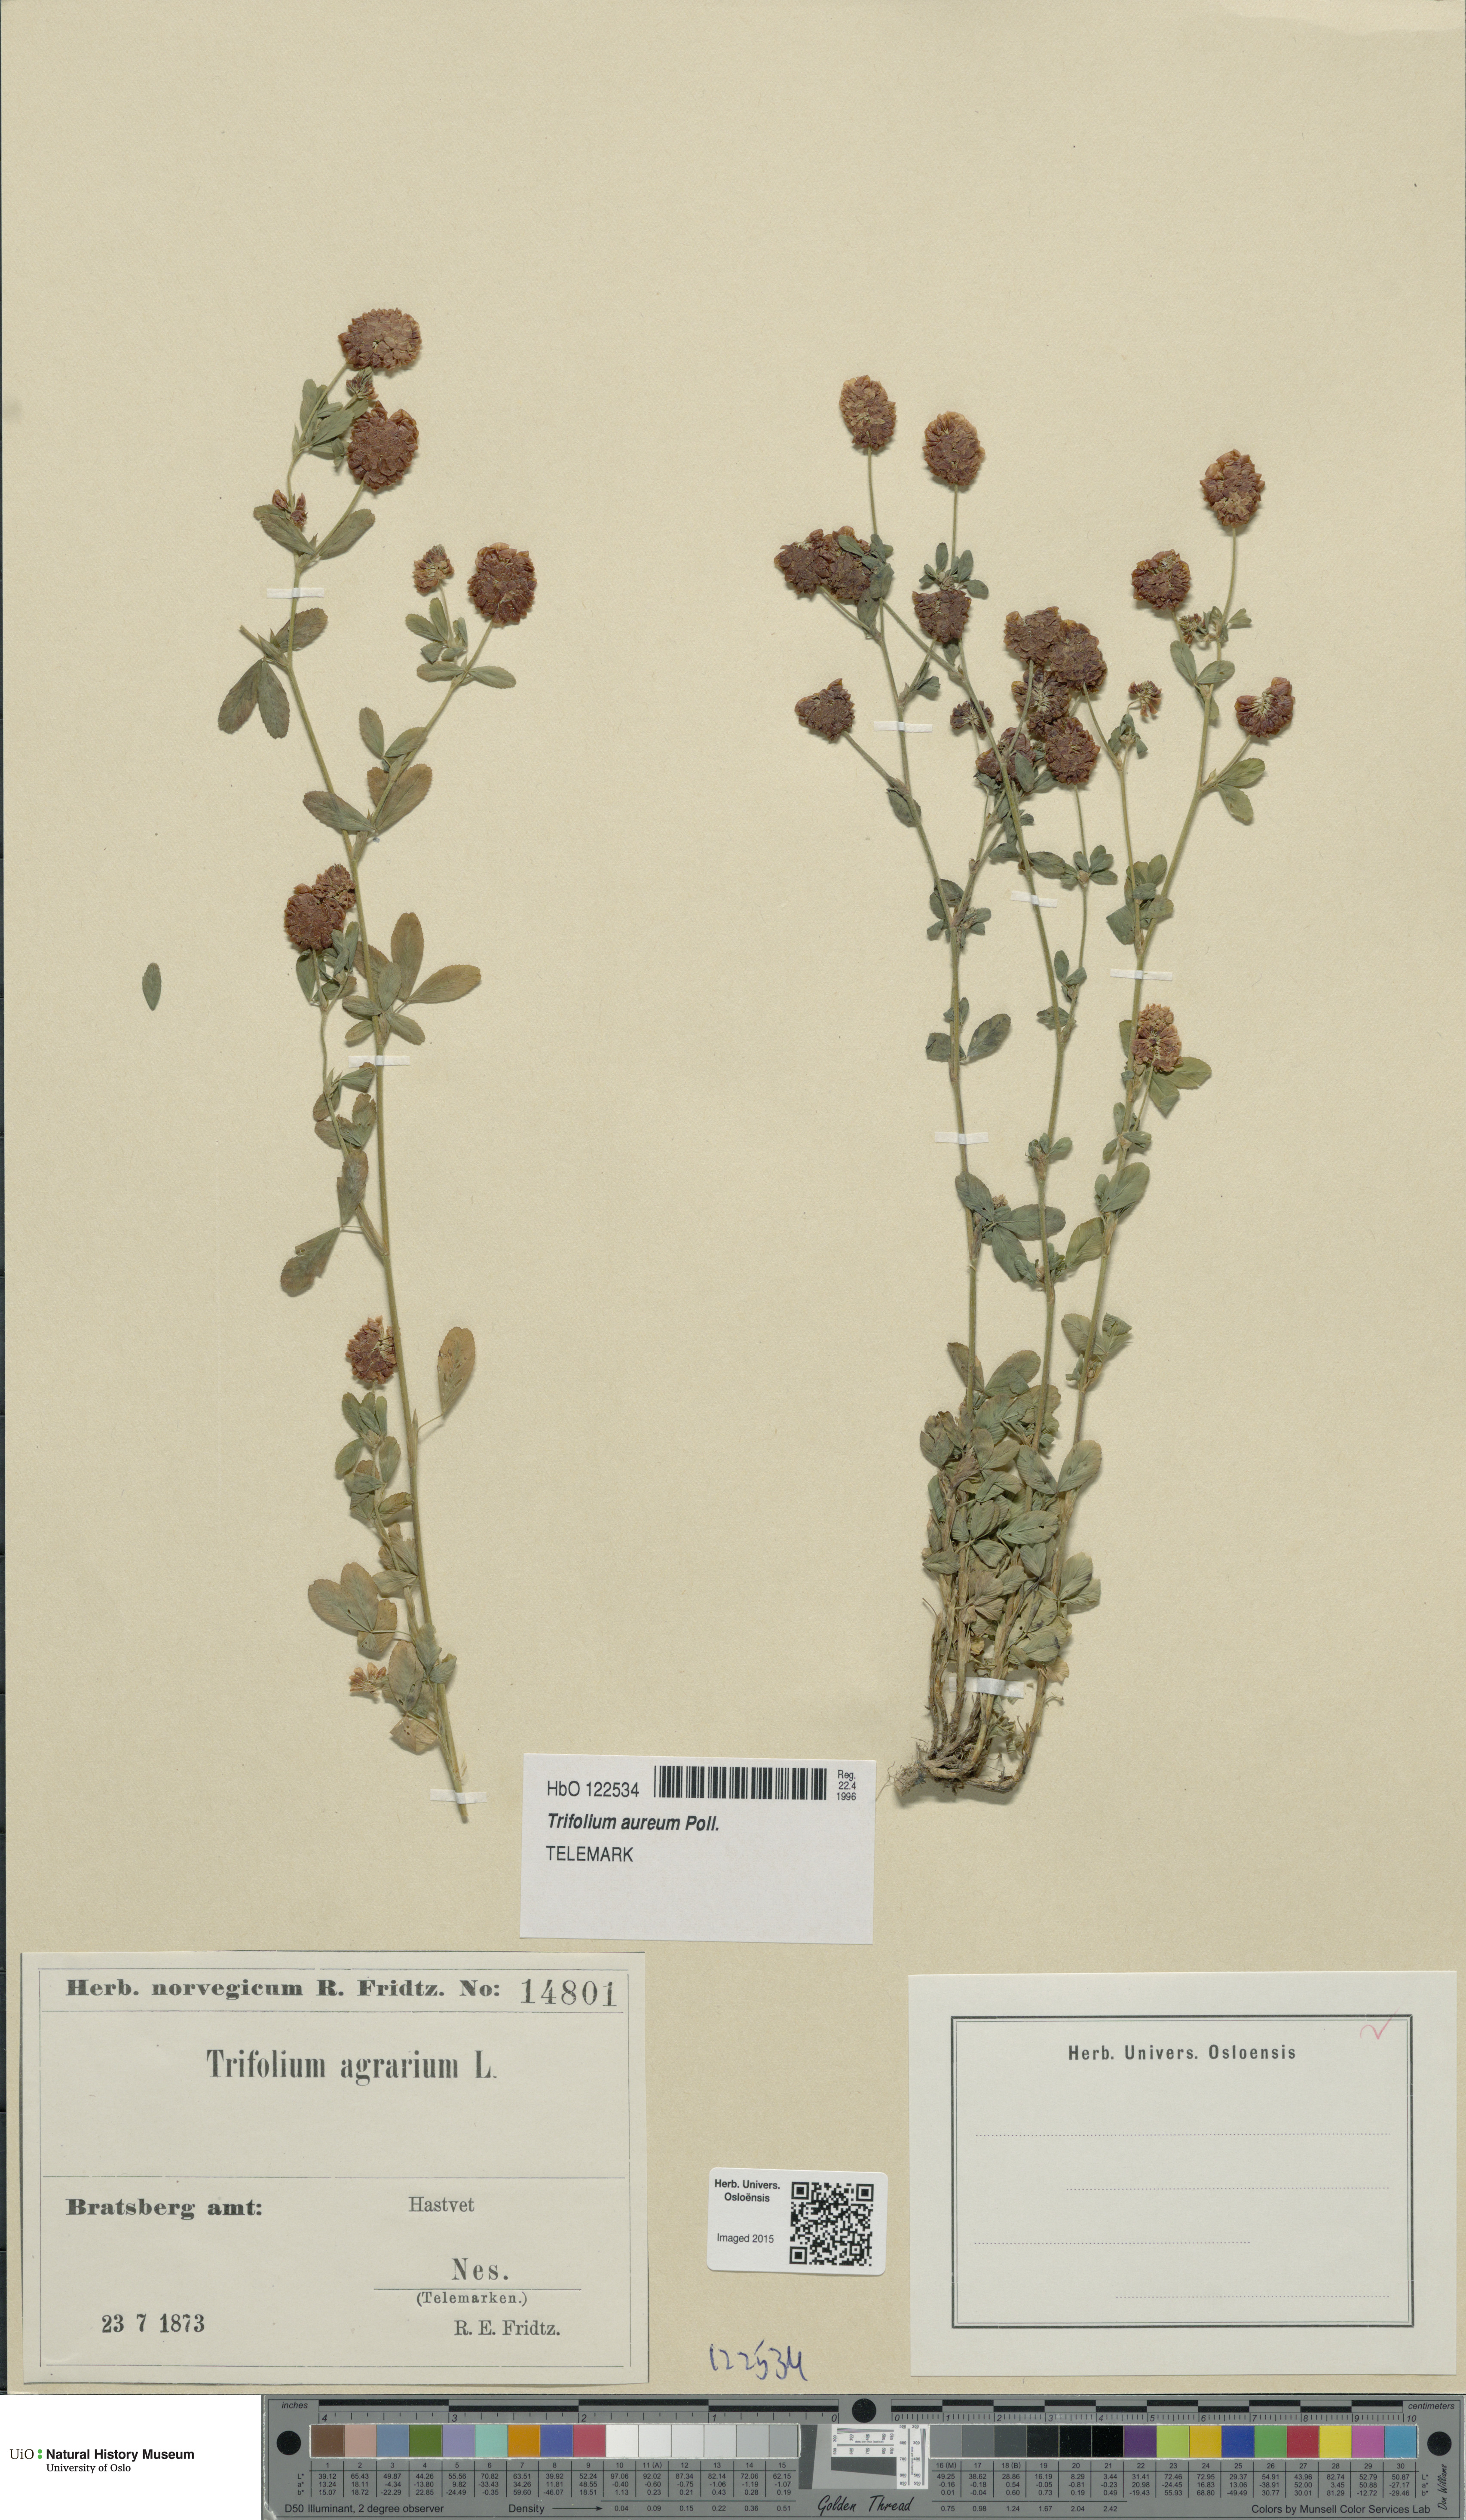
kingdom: Plantae
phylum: Tracheophyta
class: Magnoliopsida
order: Fabales
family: Fabaceae
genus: Trifolium
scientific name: Trifolium aureum
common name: Golden clover
